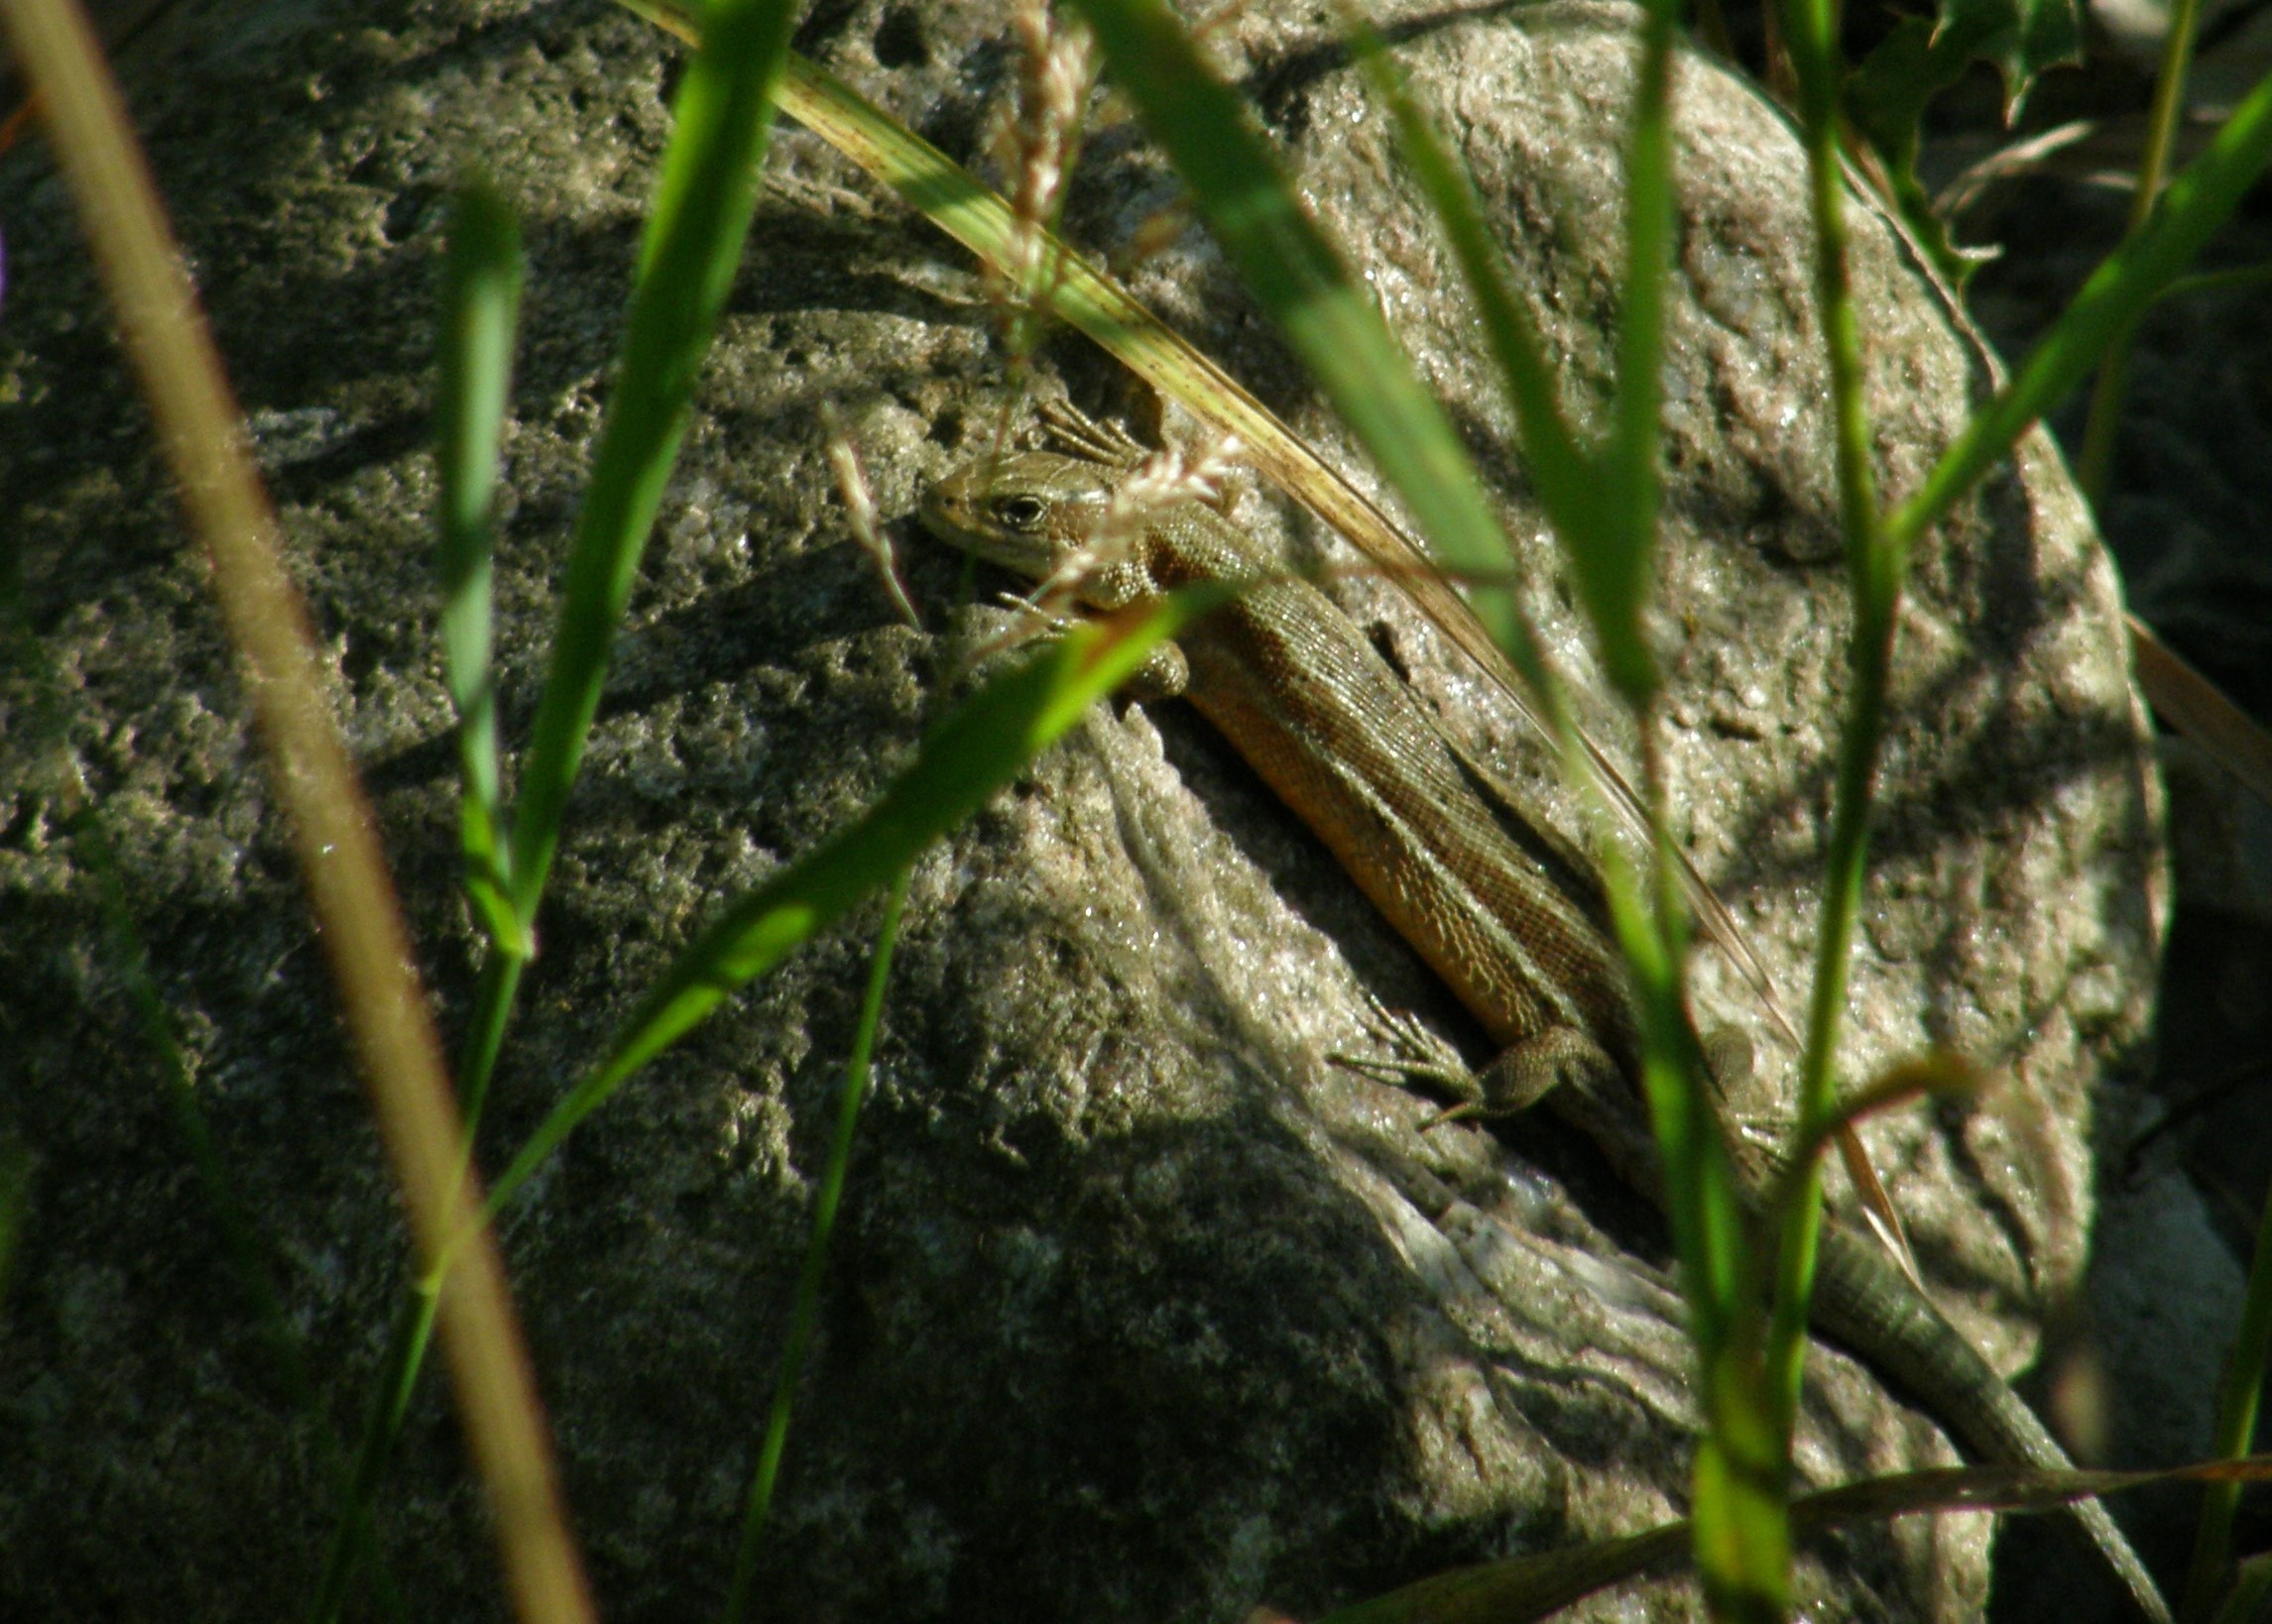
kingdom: Animalia
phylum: Chordata
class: Squamata
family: Lacertidae
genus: Zootoca
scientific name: Zootoca vivipara
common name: Skovfirben
